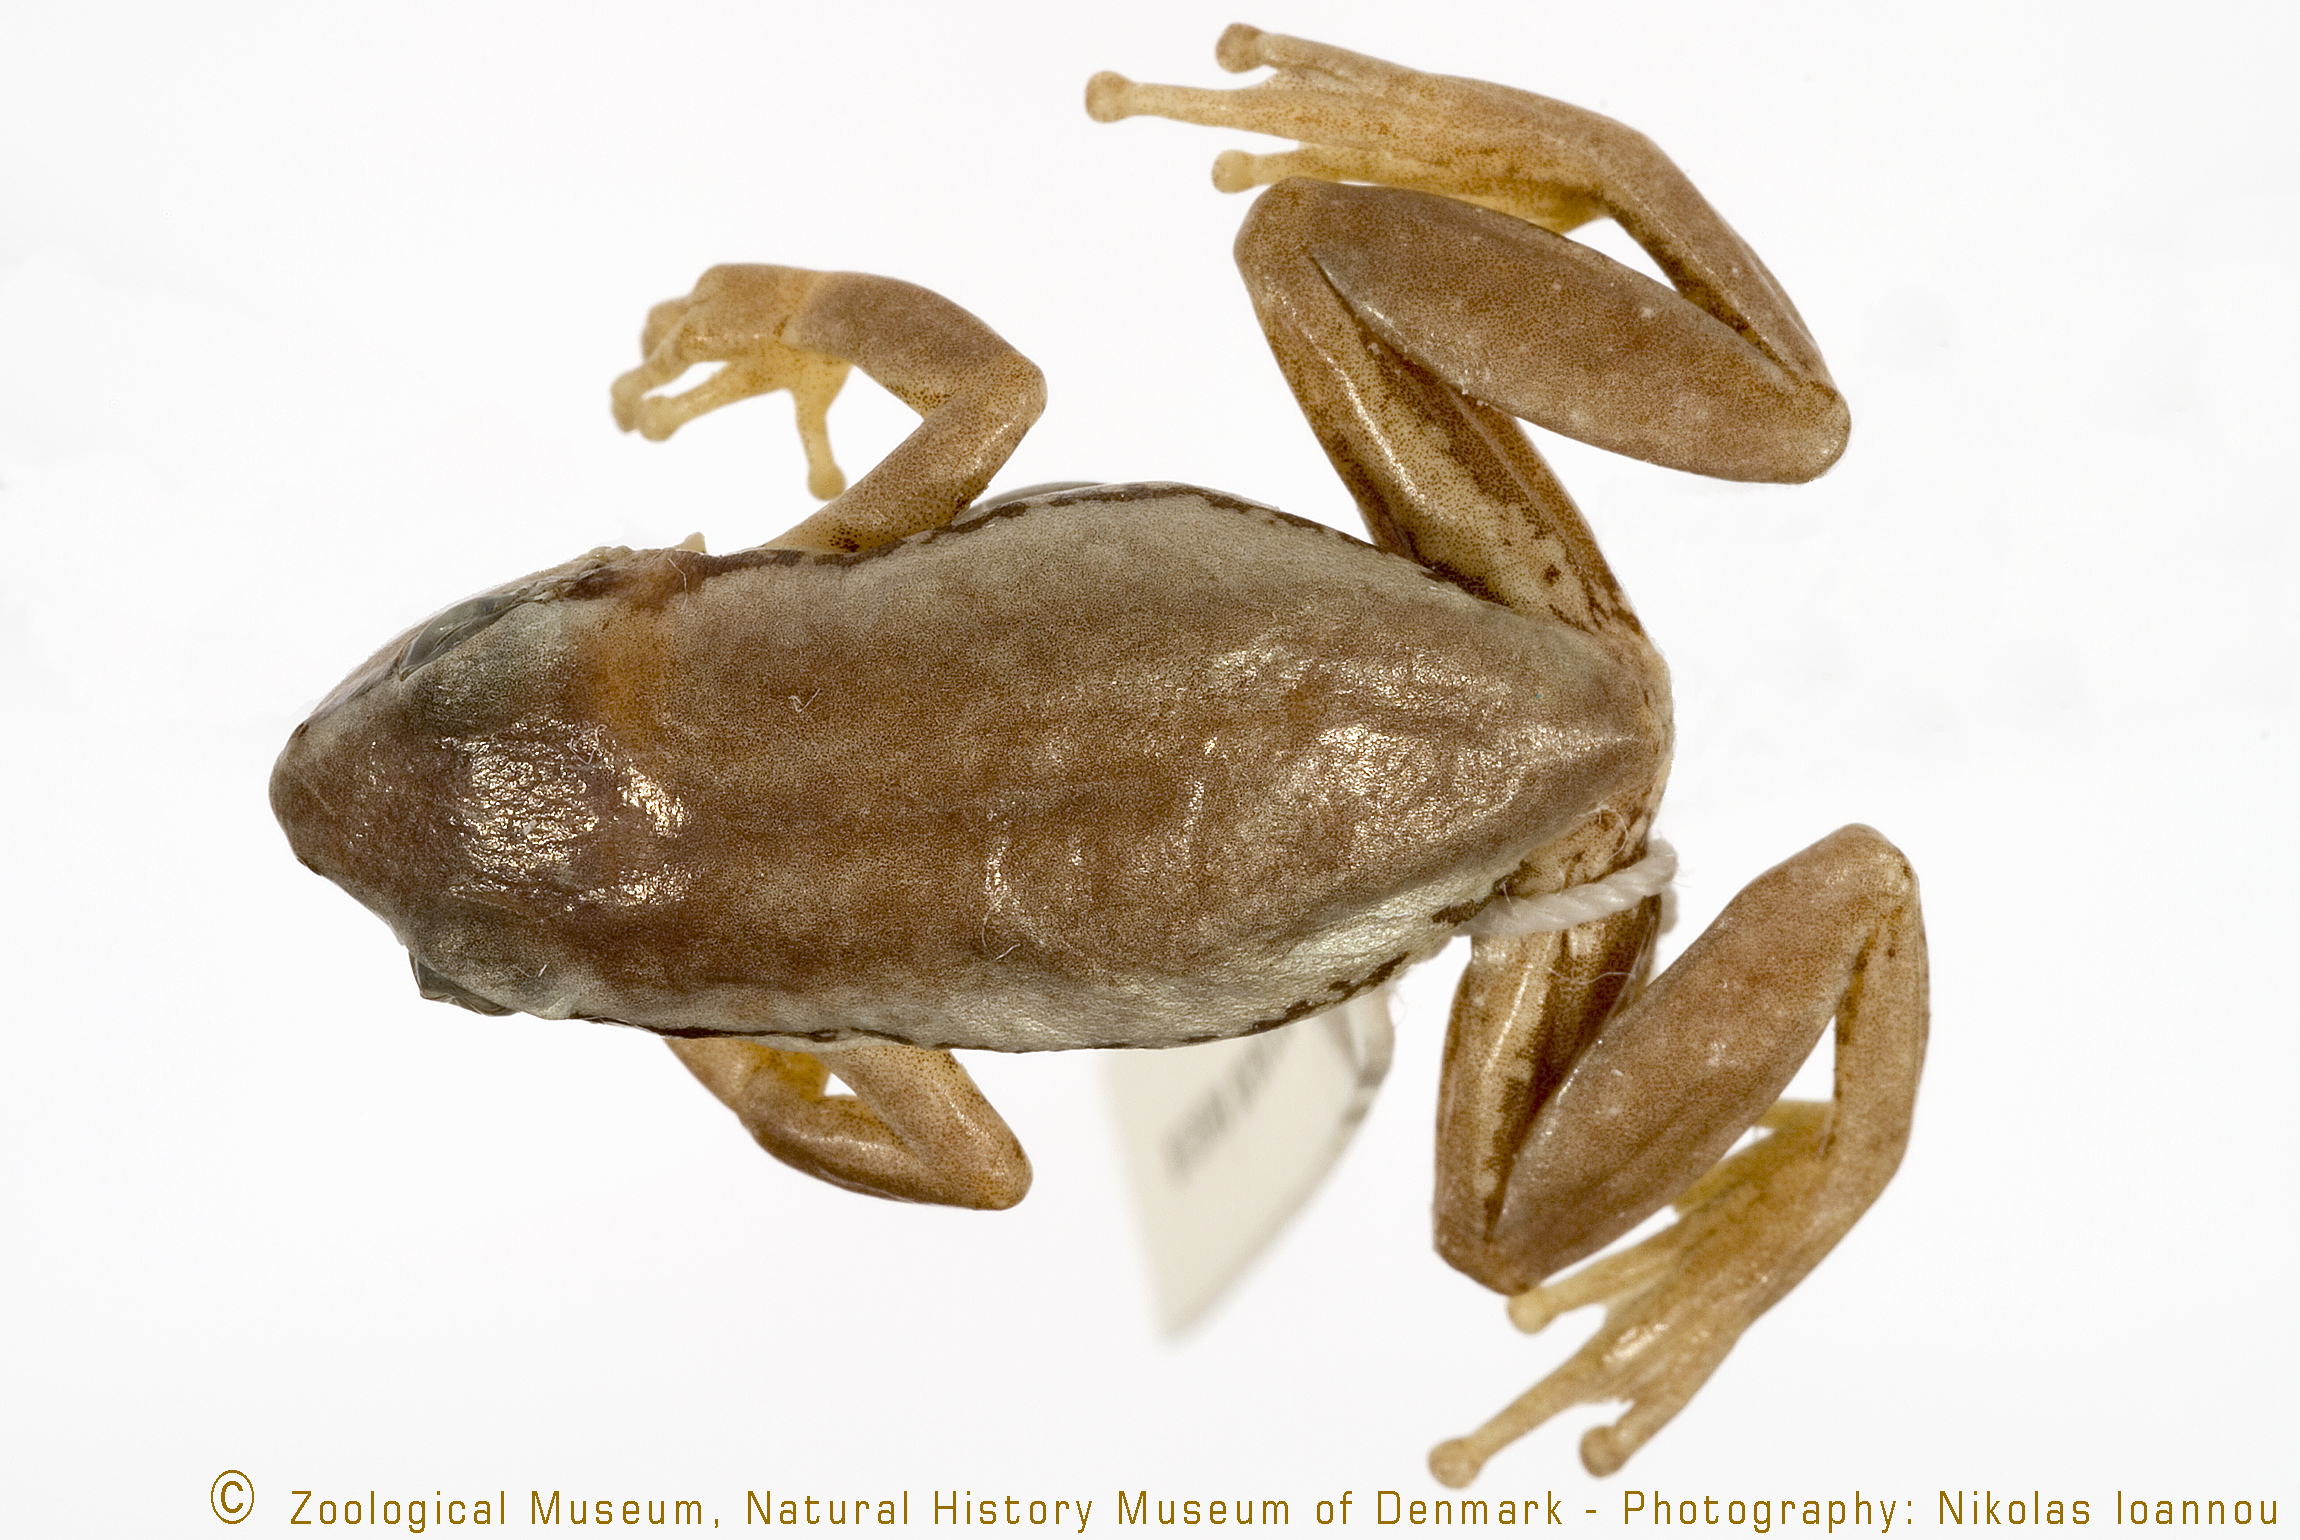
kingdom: Animalia
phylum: Chordata
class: Amphibia
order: Anura
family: Hyperoliidae
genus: Hyperolius
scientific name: Hyperolius kivuensis
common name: Kivu reed frog
